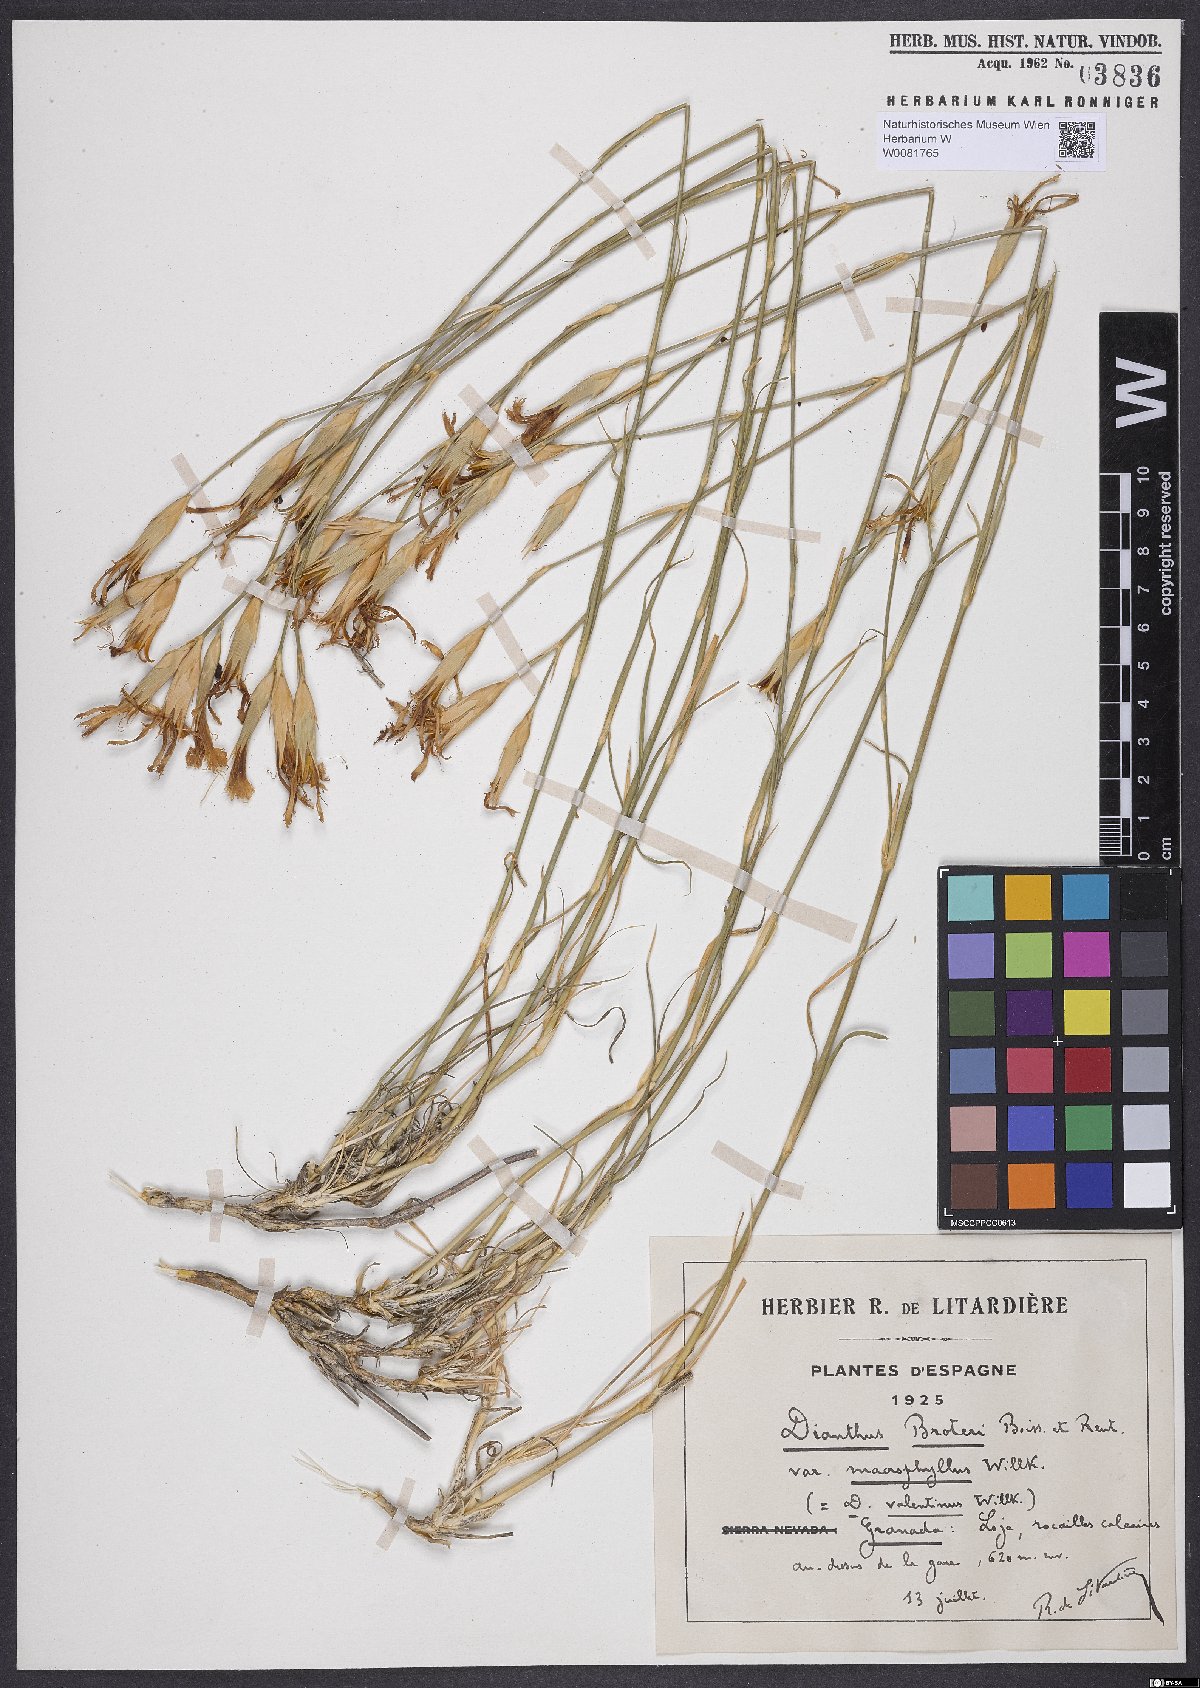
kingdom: Plantae
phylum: Tracheophyta
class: Magnoliopsida
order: Caryophyllales
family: Caryophyllaceae
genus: Dianthus
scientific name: Dianthus broteri
